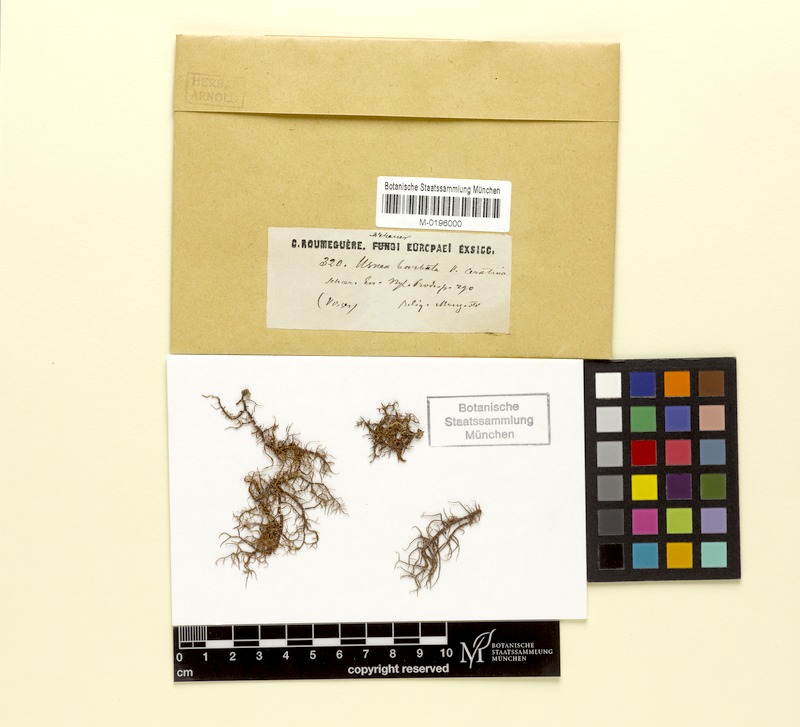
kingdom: Fungi
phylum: Ascomycota
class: Lecanoromycetes
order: Lecanorales
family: Parmeliaceae
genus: Usnea
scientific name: Usnea ceratina
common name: Warty beard lichen
